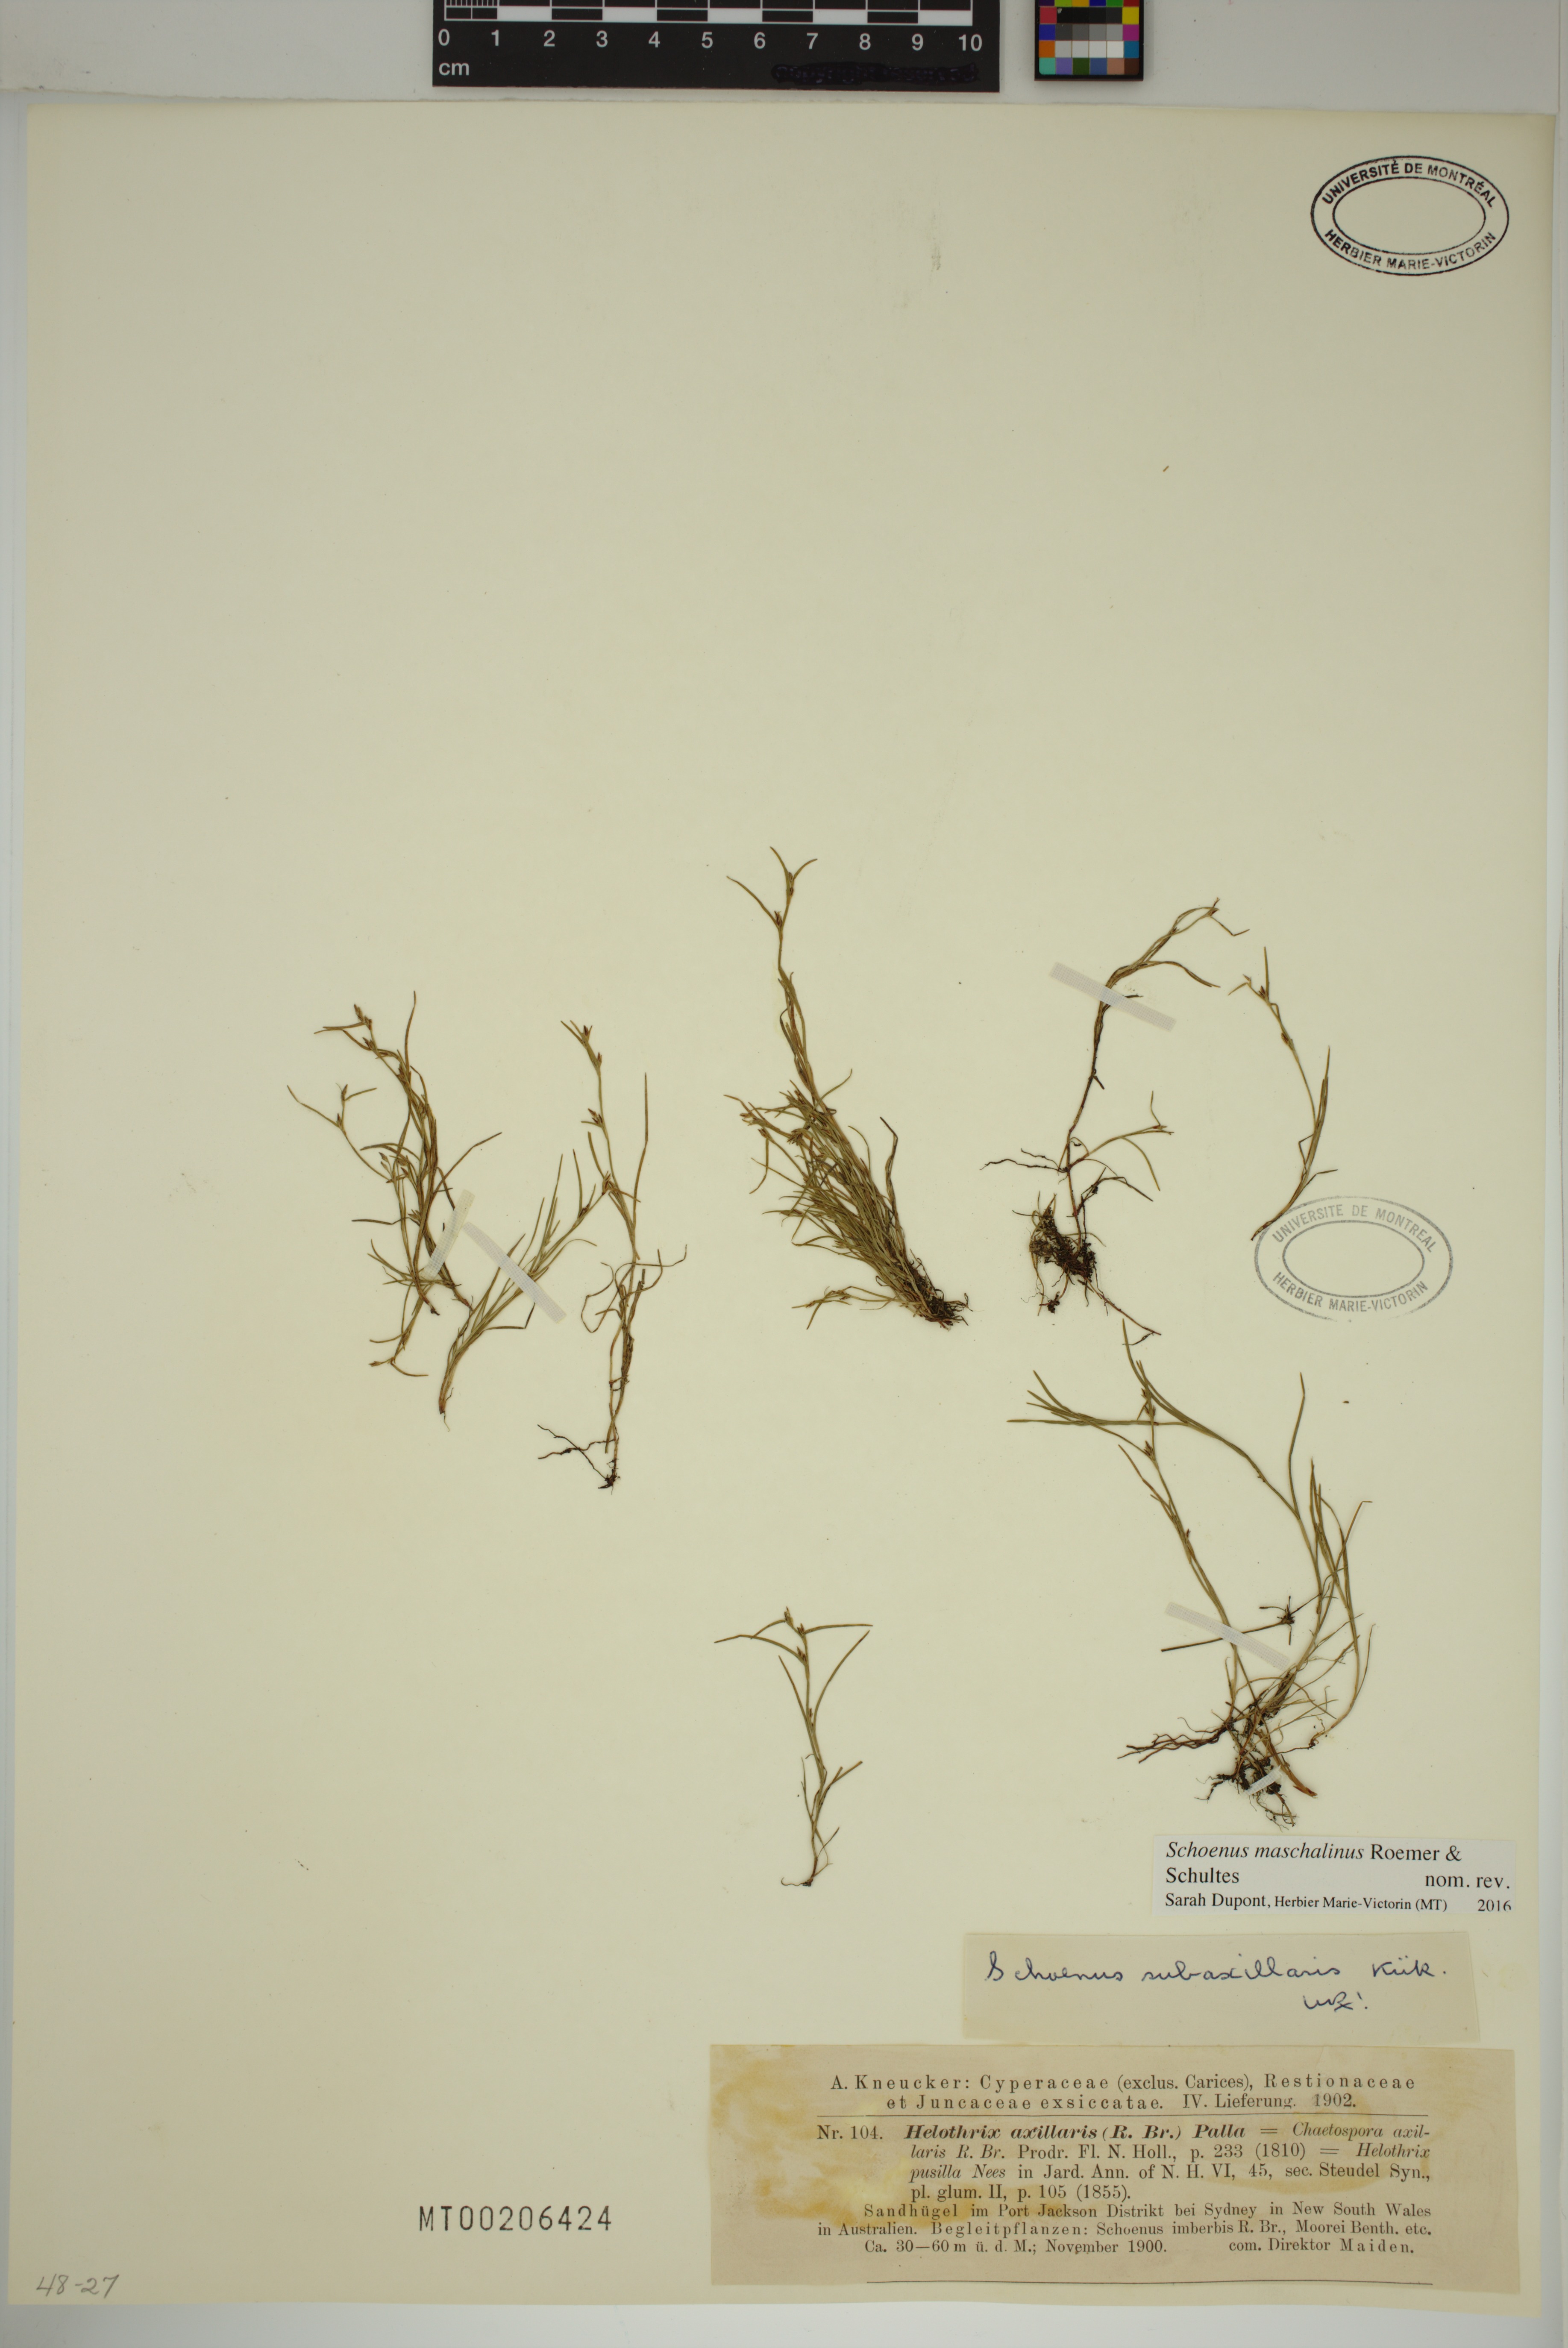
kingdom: Plantae
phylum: Tracheophyta
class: Liliopsida
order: Poales
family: Cyperaceae
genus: Schoenus
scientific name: Schoenus maschalinus
